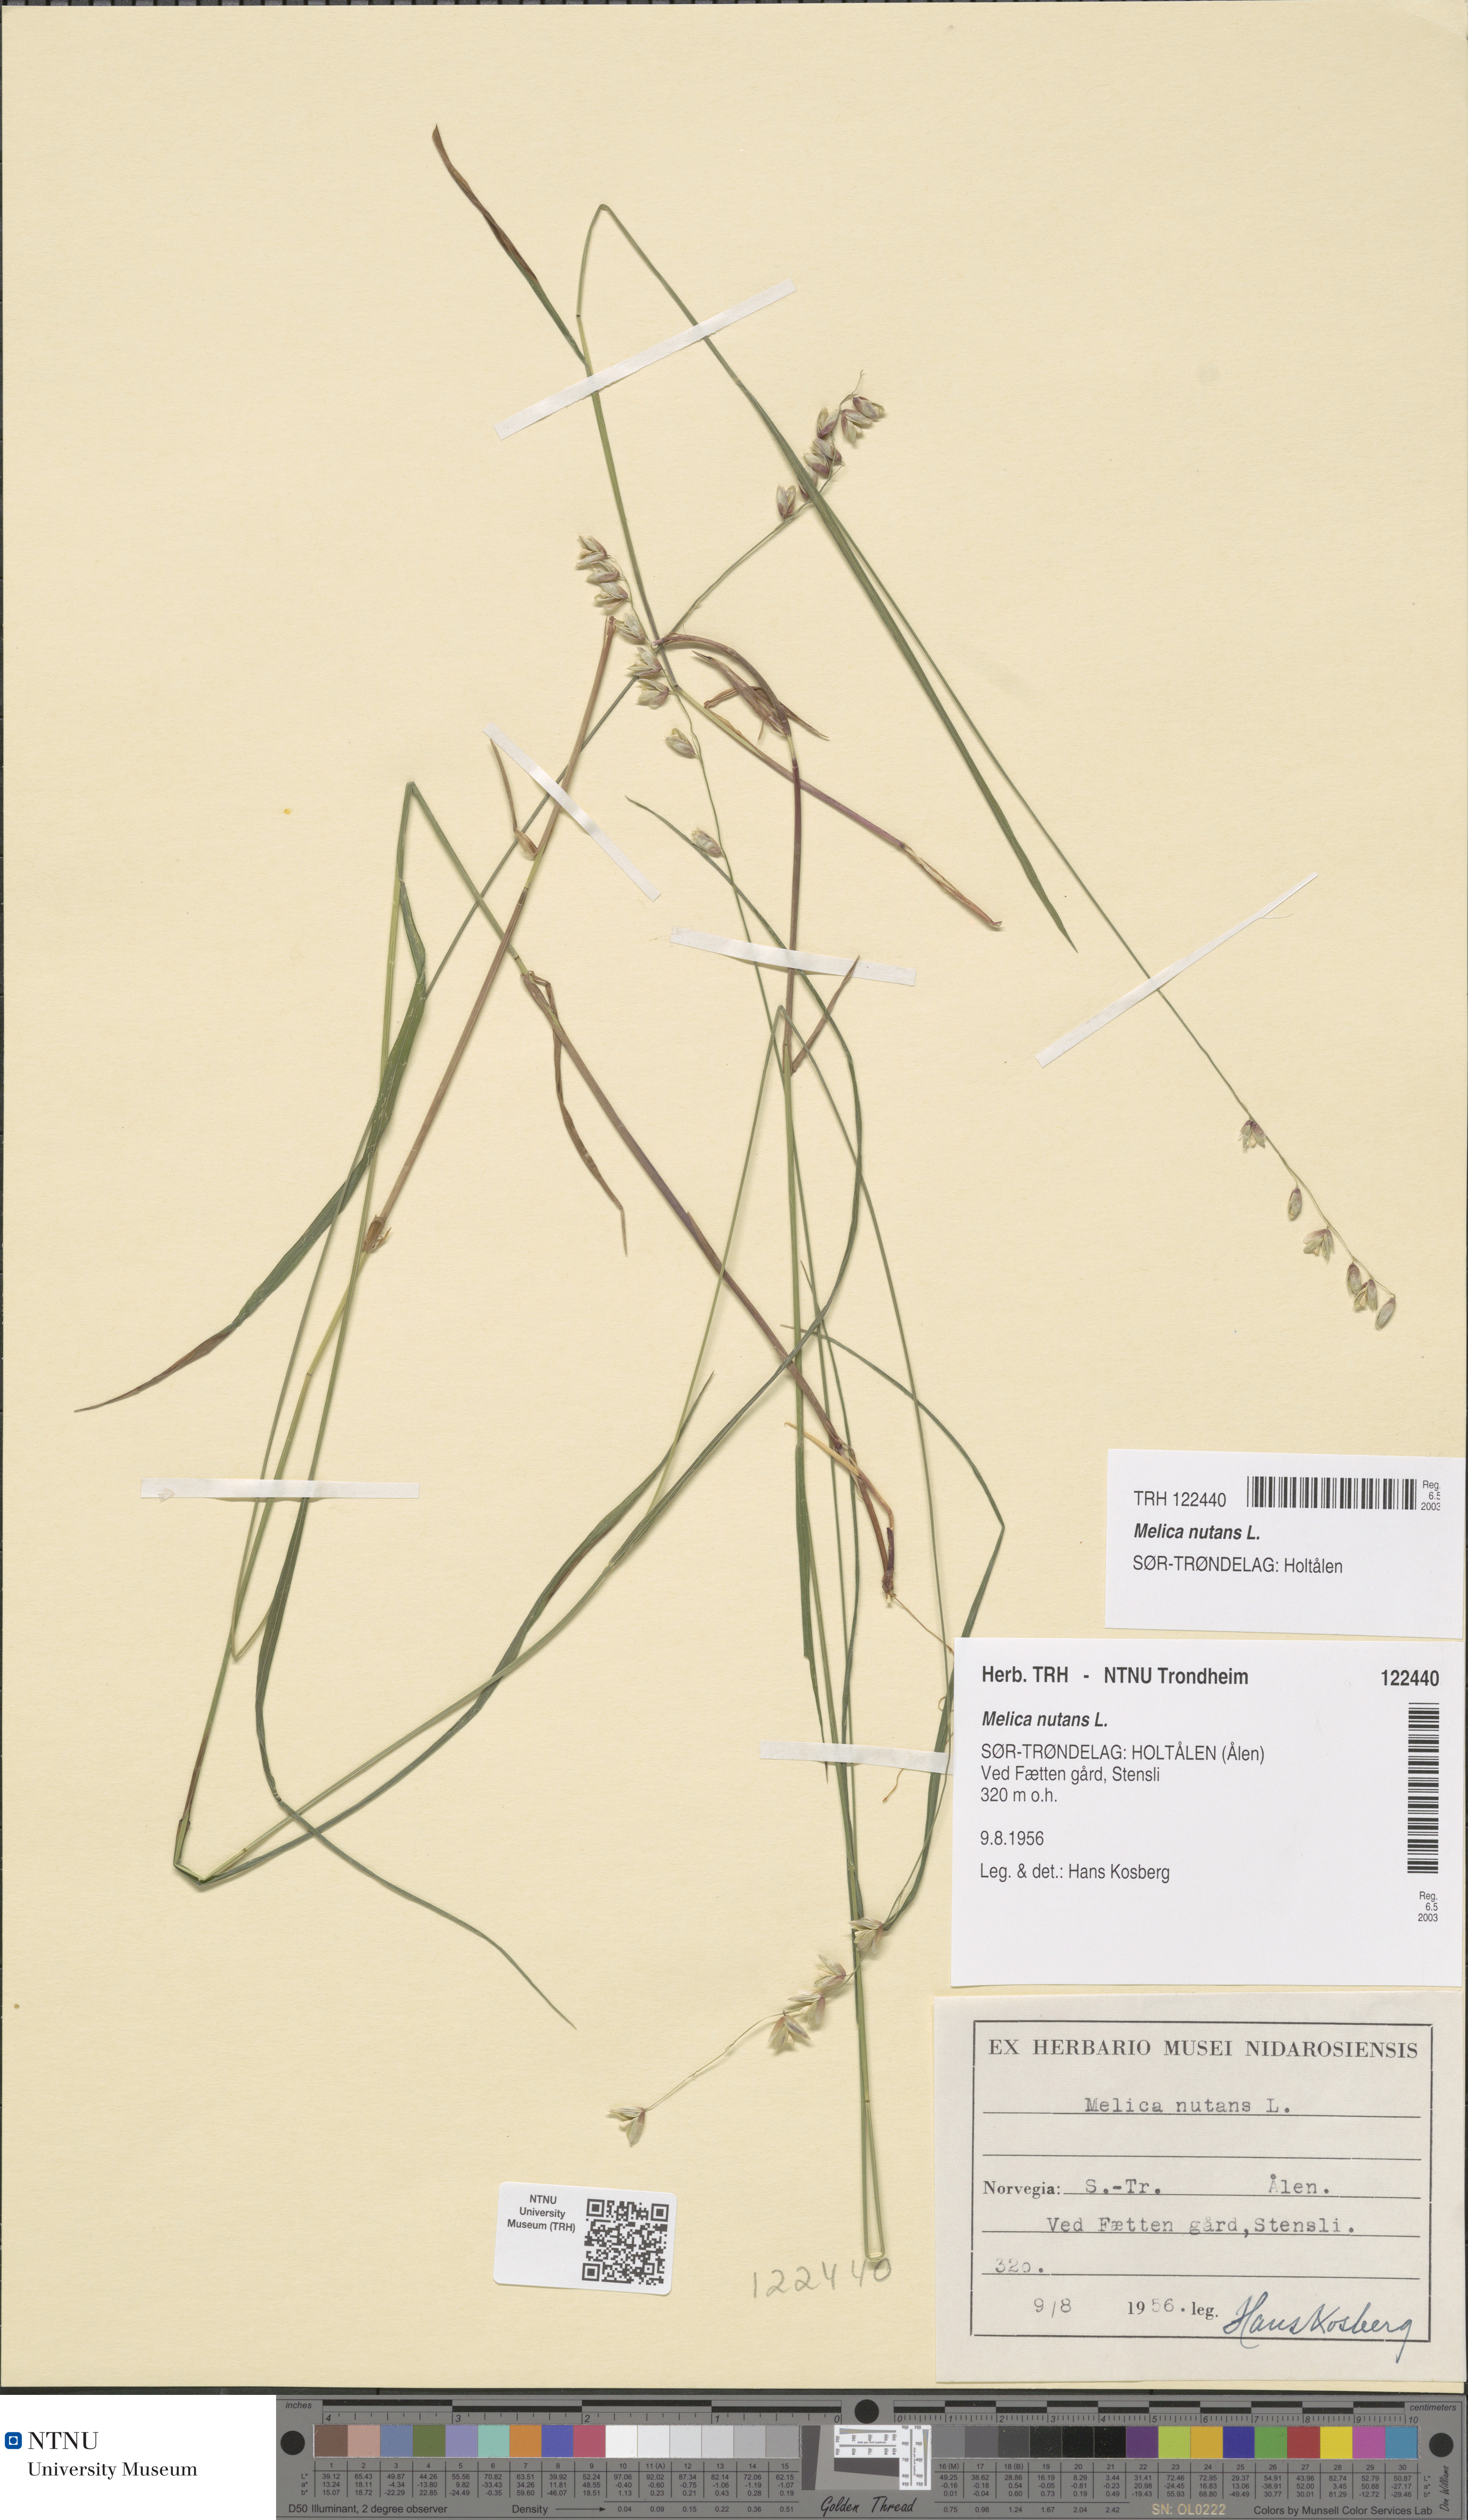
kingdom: Plantae
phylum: Tracheophyta
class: Liliopsida
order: Poales
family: Poaceae
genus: Melica
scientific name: Melica nutans
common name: Mountain melick
